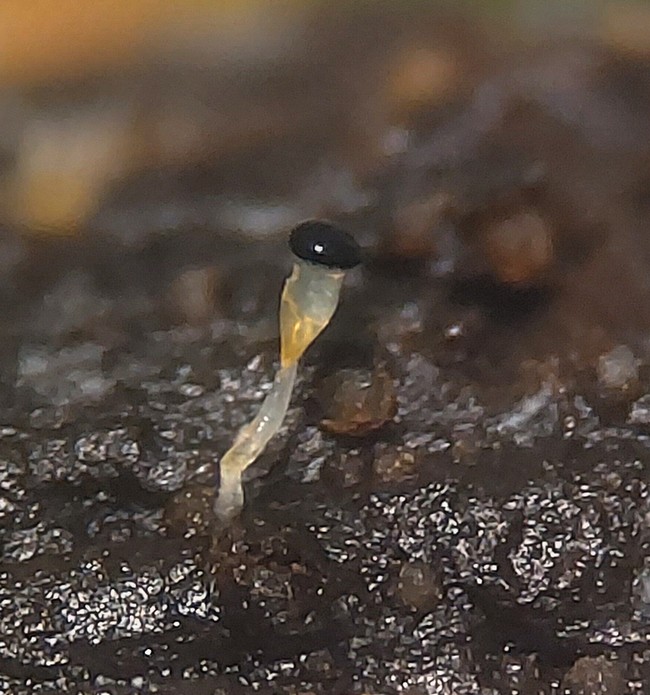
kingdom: Fungi
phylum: Mucoromycota
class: Mucoromycetes
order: Mucorales
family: Pilobolaceae
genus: Pilobolus
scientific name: Pilobolus crystallinus
